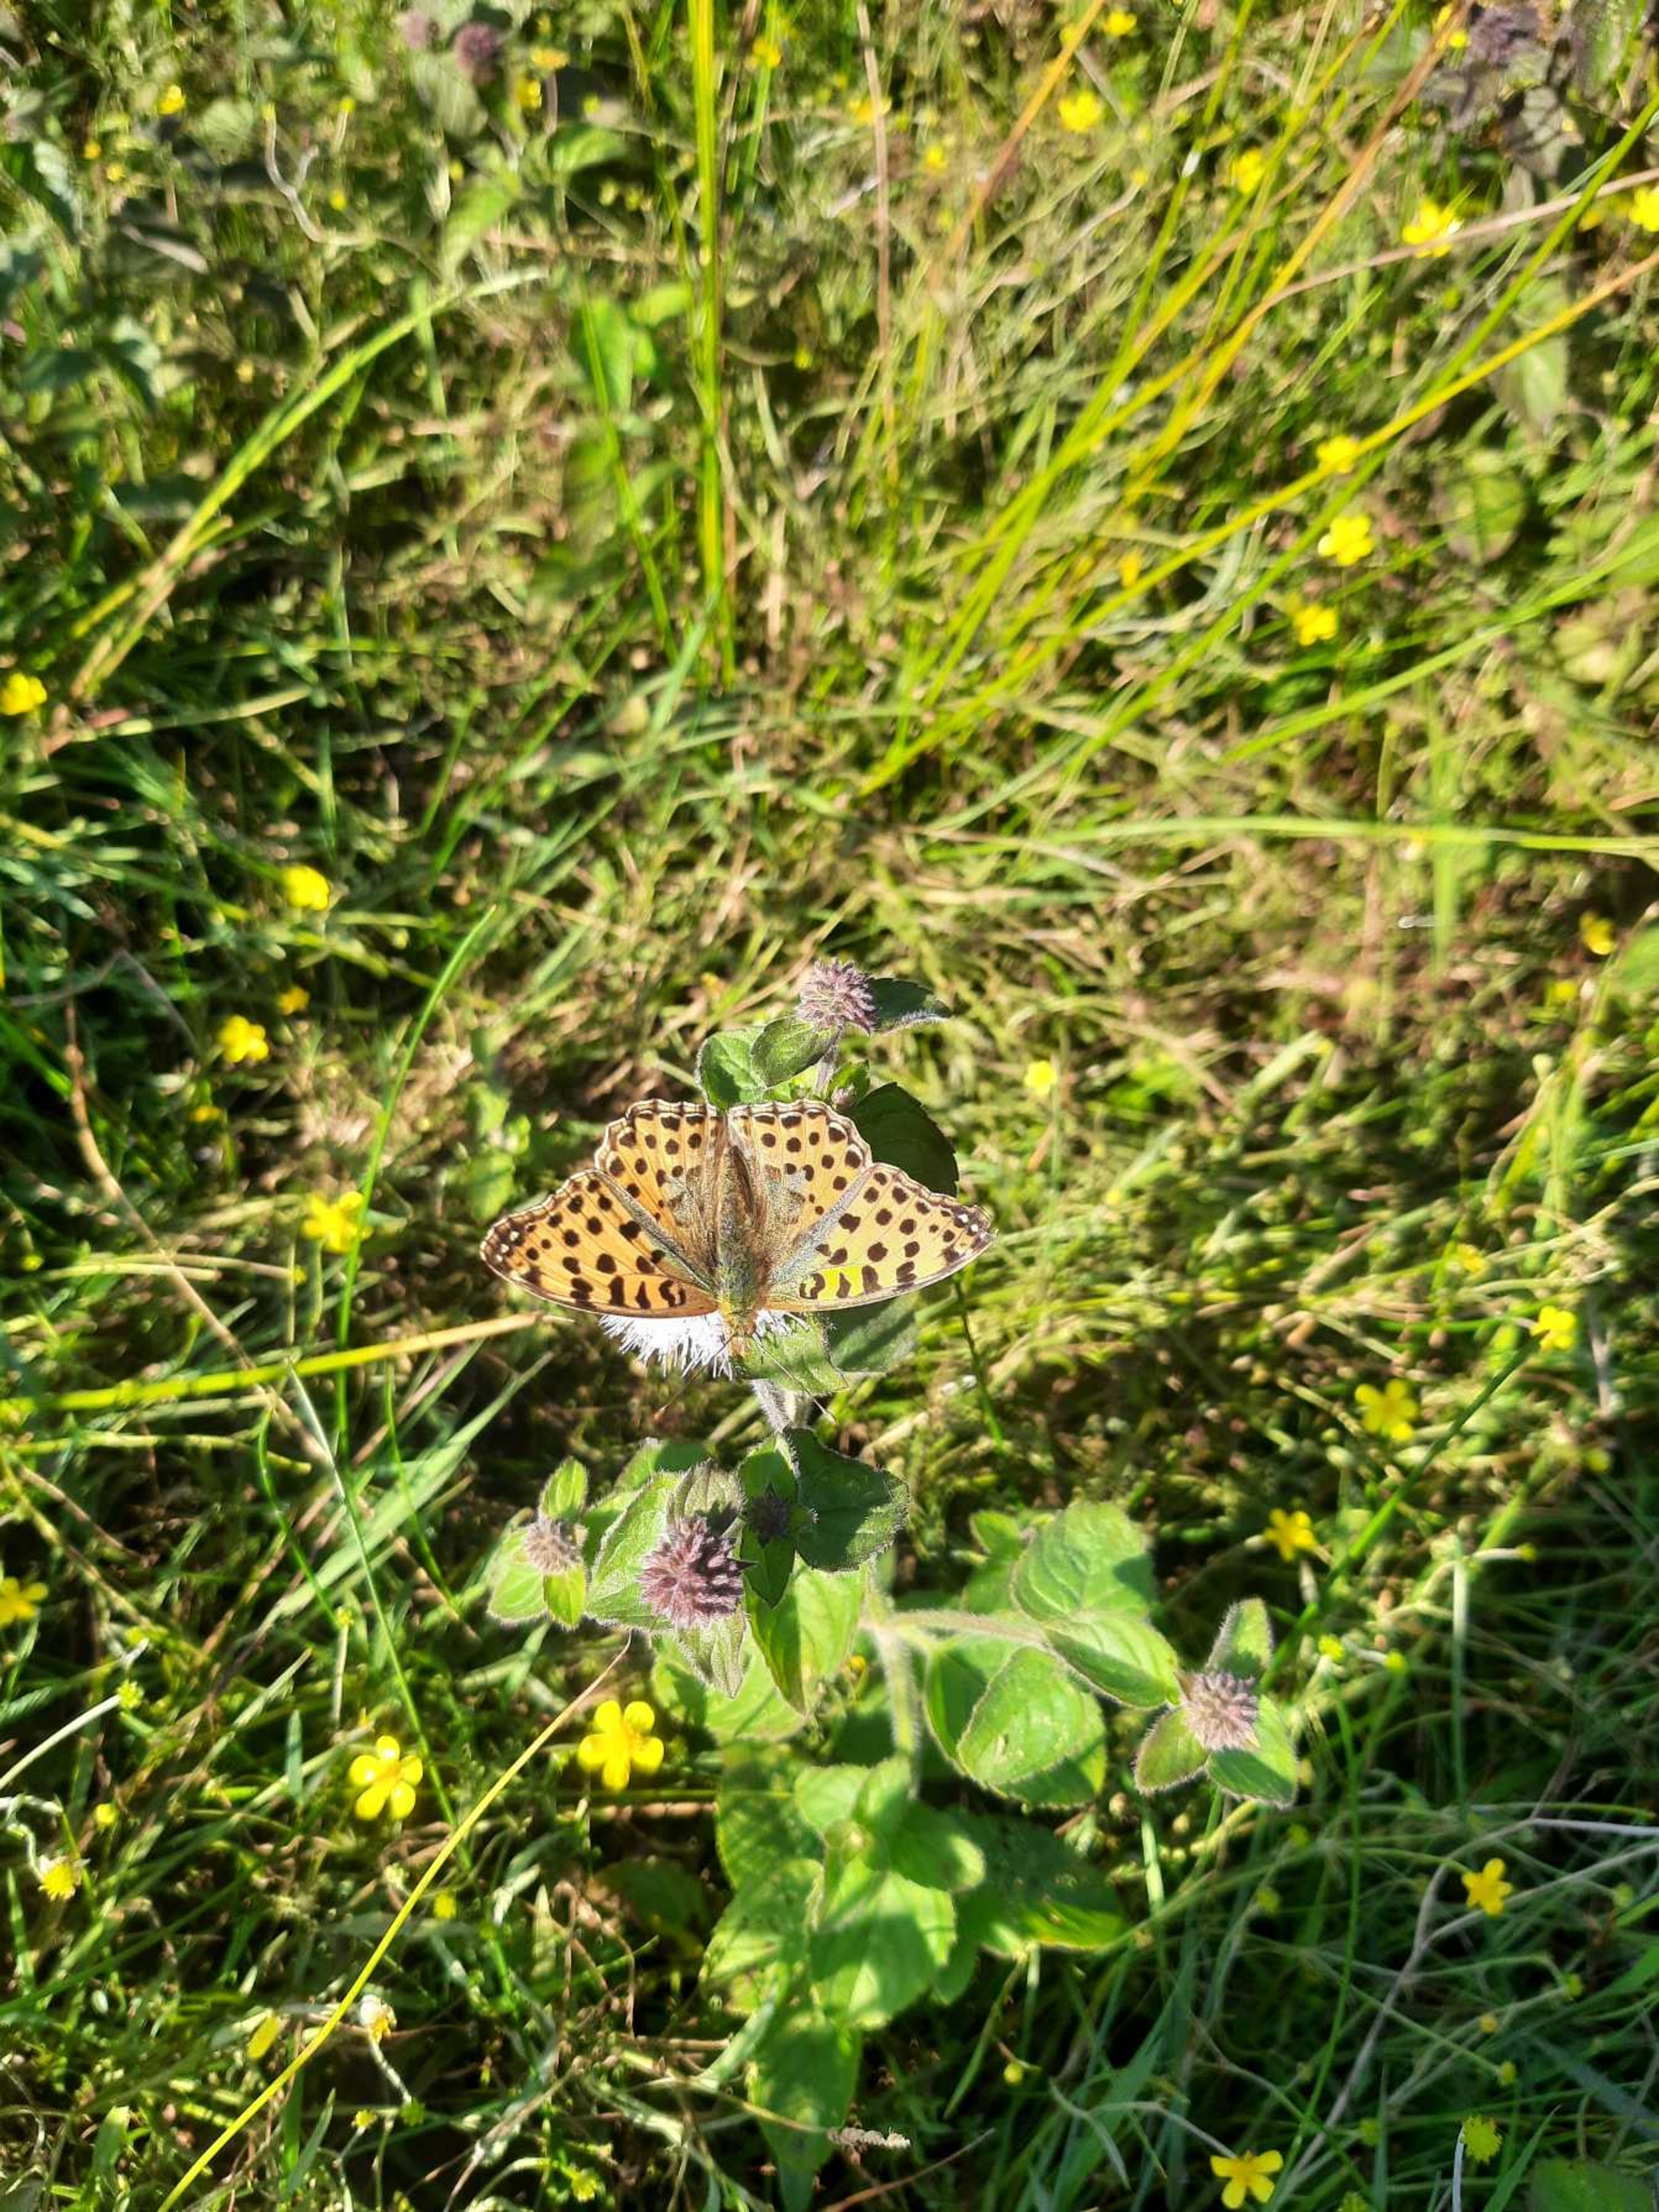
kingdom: Animalia
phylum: Arthropoda
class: Insecta
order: Lepidoptera
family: Nymphalidae
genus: Issoria
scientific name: Issoria lathonia
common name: Storplettet perlemorsommerfugl
